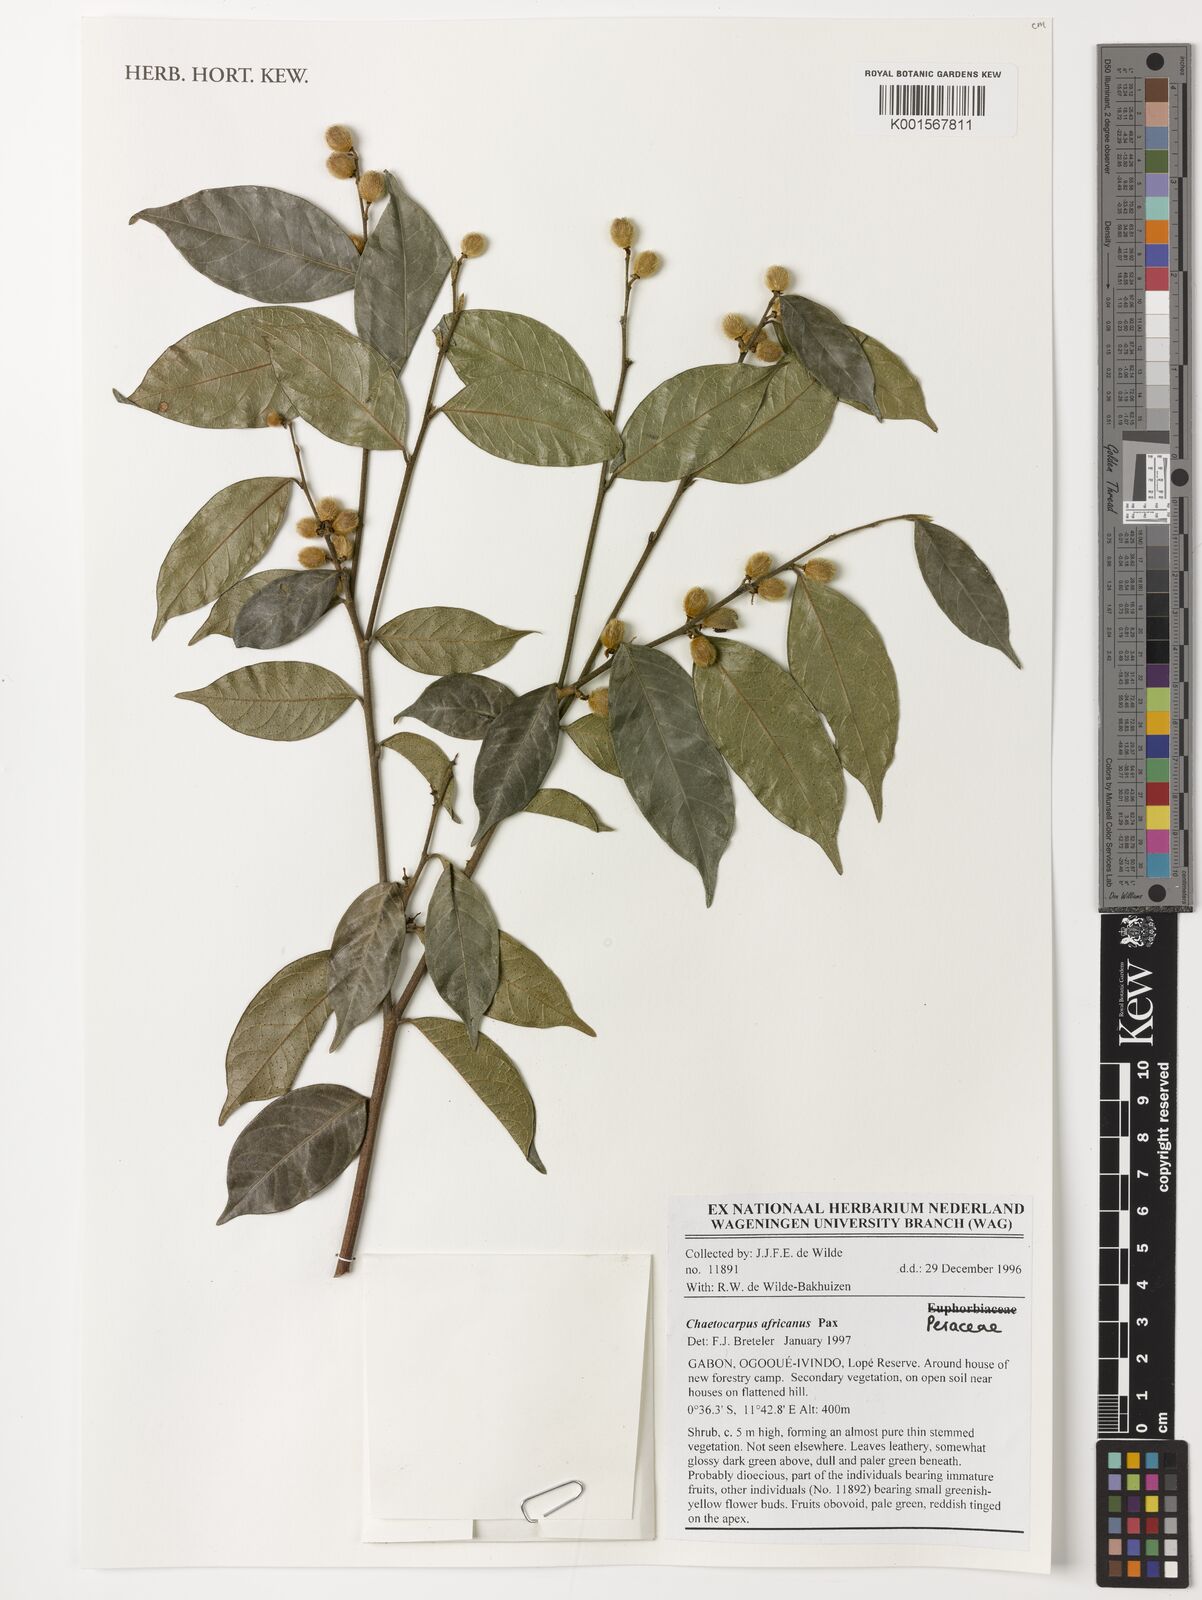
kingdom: Plantae
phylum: Tracheophyta
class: Magnoliopsida
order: Malpighiales
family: Peraceae
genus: Chaetocarpus
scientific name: Chaetocarpus africanus
